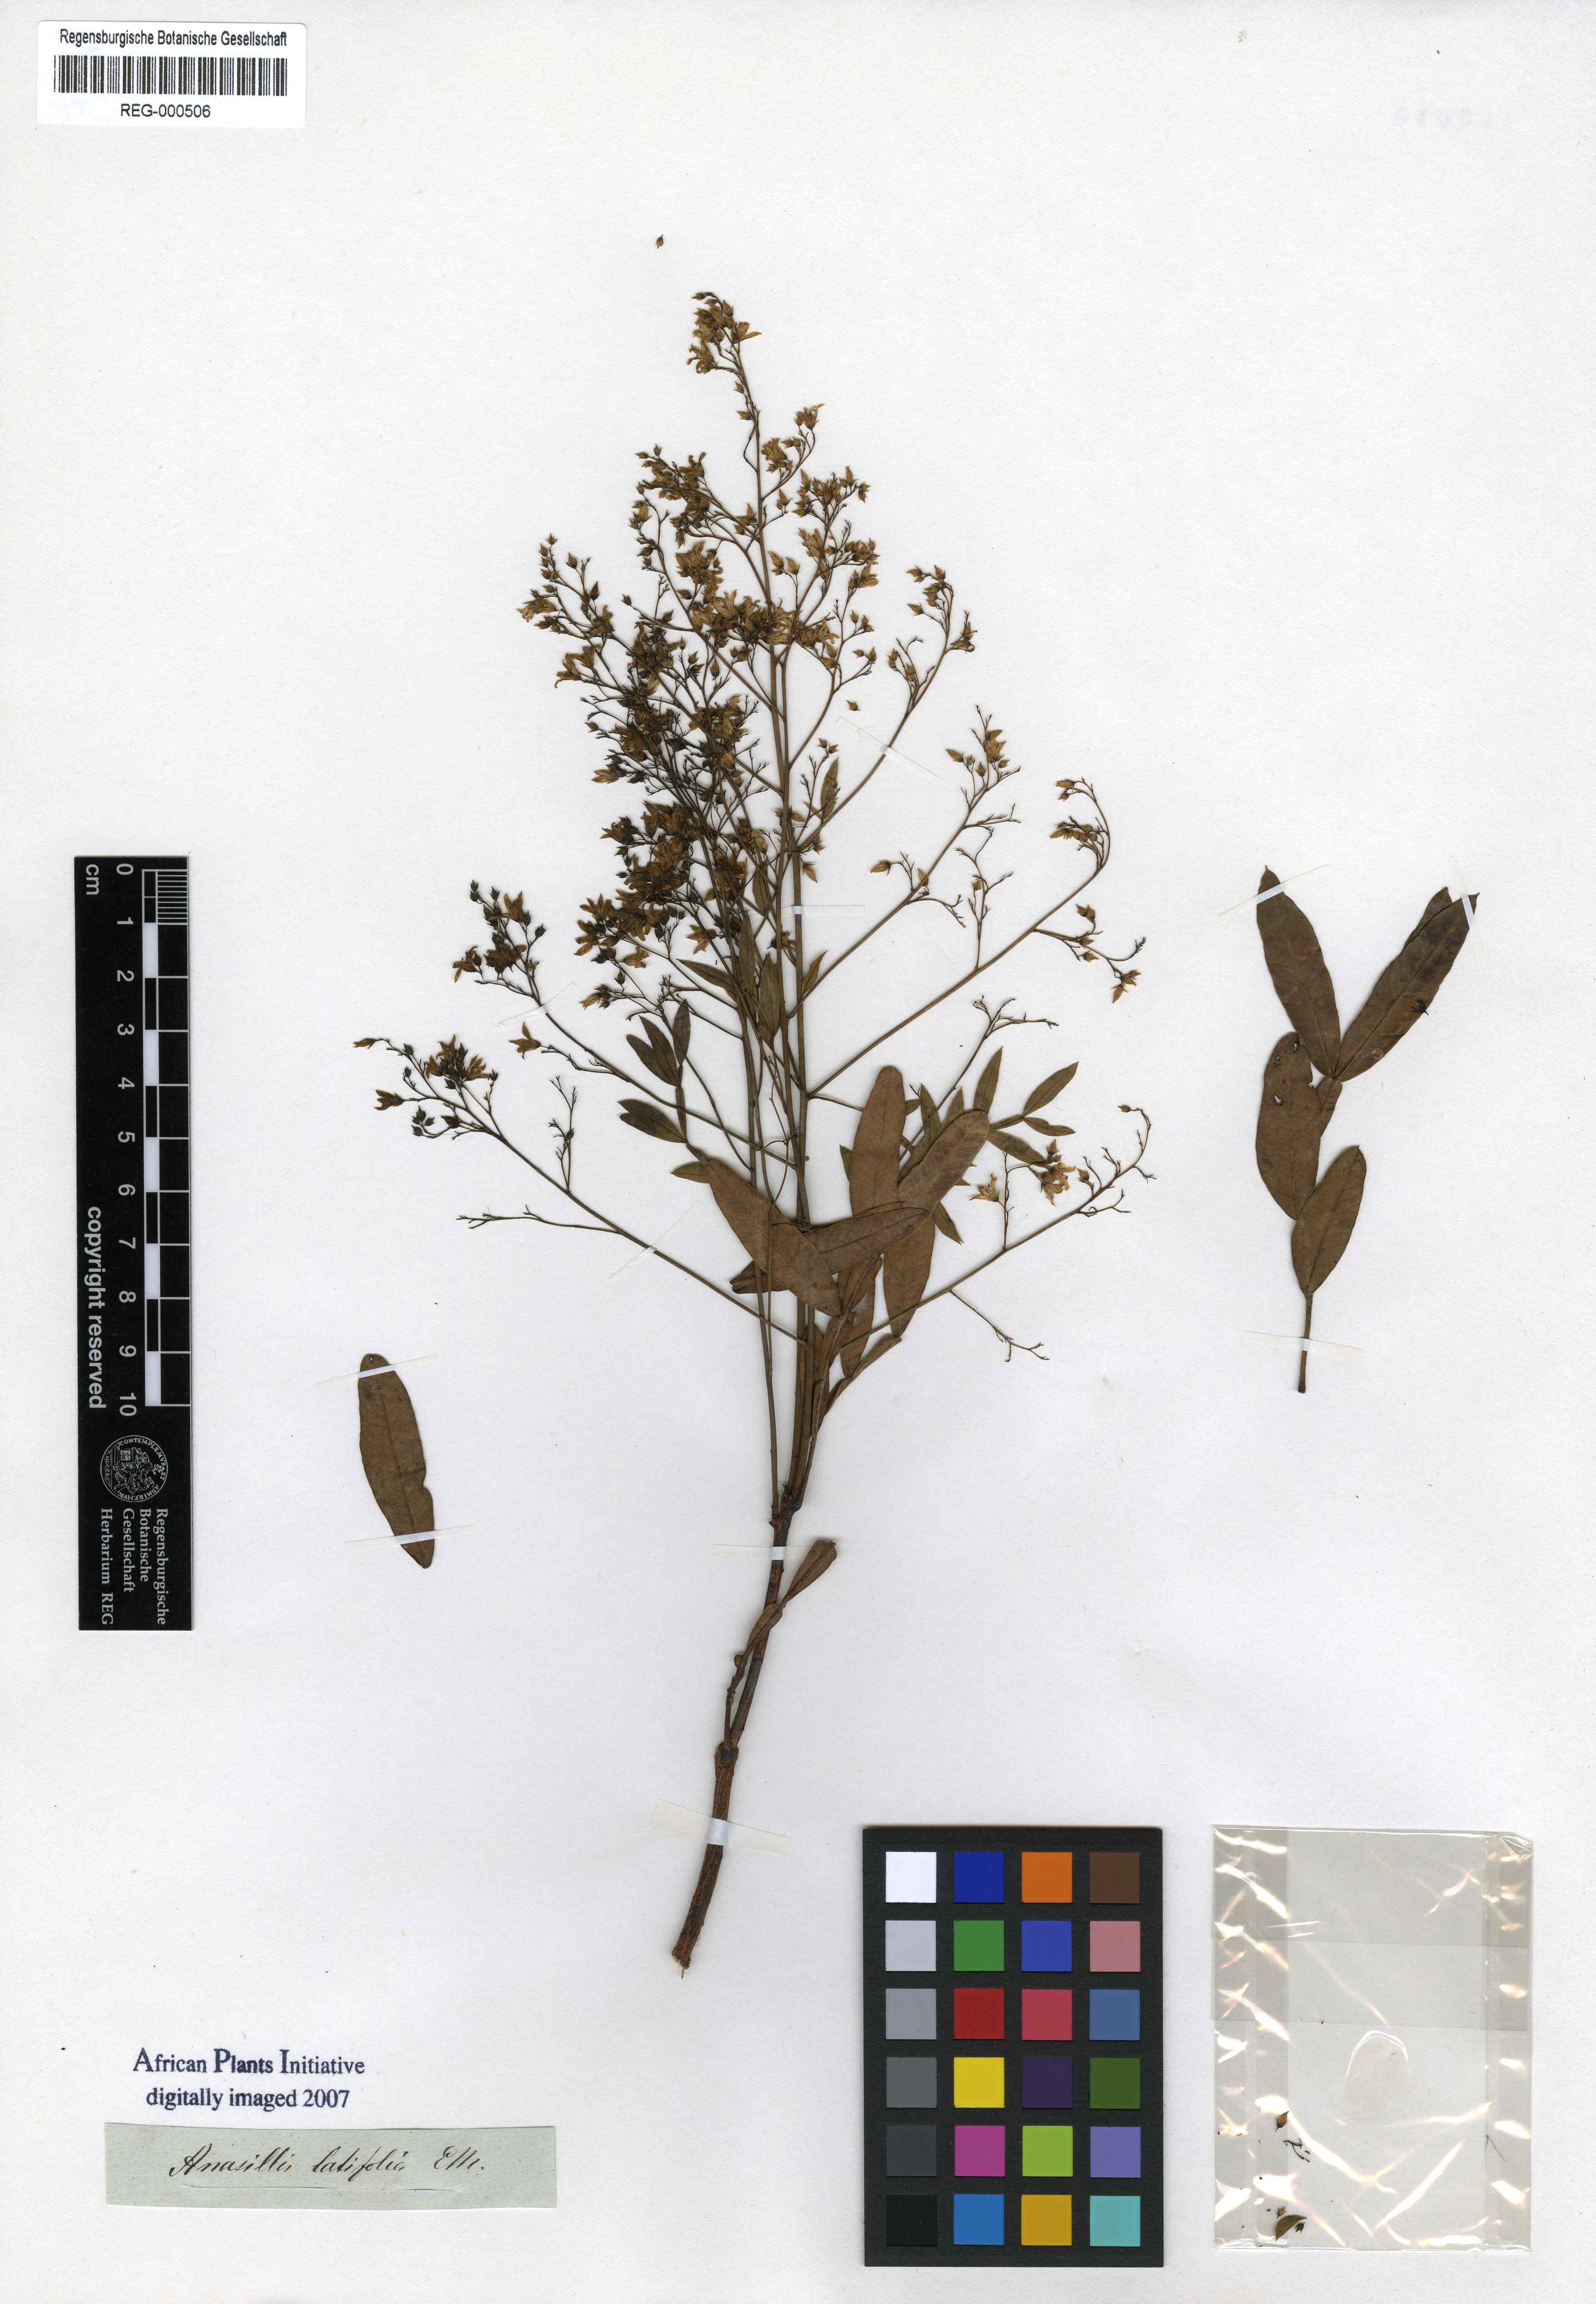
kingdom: Plantae
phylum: Tracheophyta
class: Magnoliopsida
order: Sapindales
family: Anacardiaceae
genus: Loxostylis
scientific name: Loxostylis alata
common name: Wild peppertree
